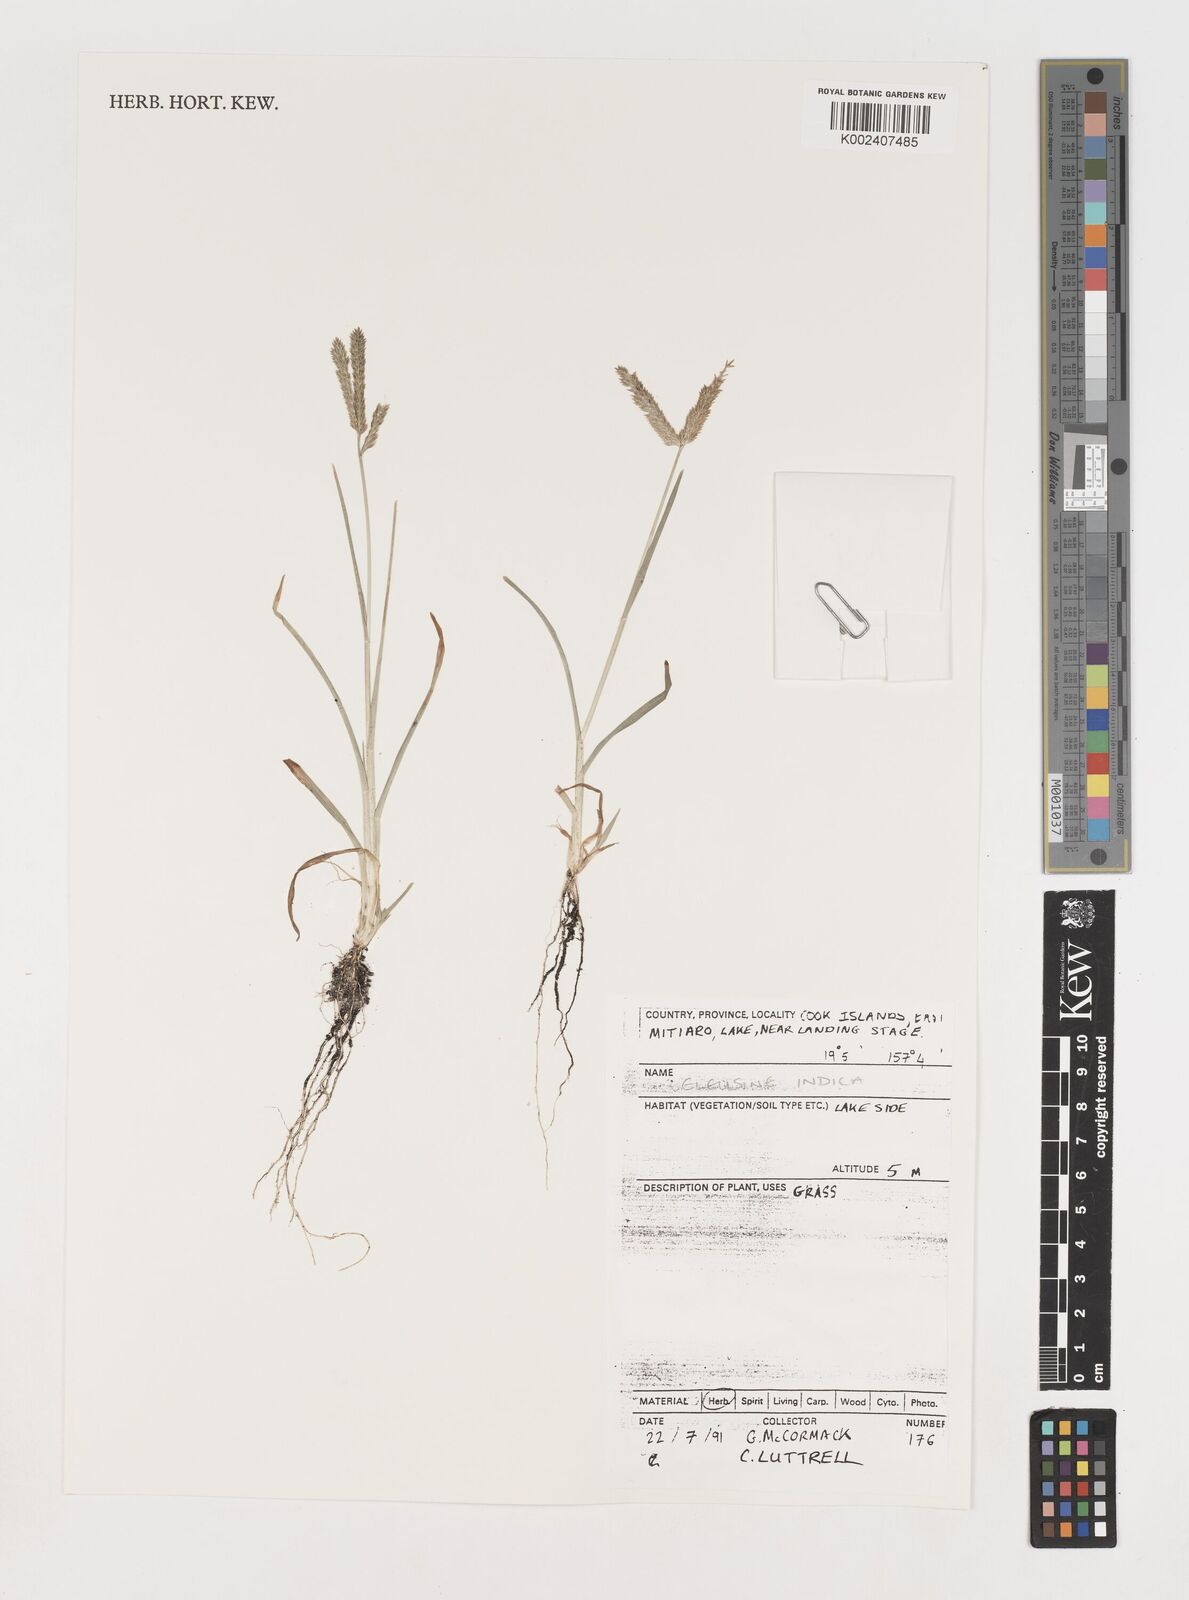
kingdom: Plantae
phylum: Tracheophyta
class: Liliopsida
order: Poales
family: Poaceae
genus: Eleusine
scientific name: Eleusine indica
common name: Yard-grass
